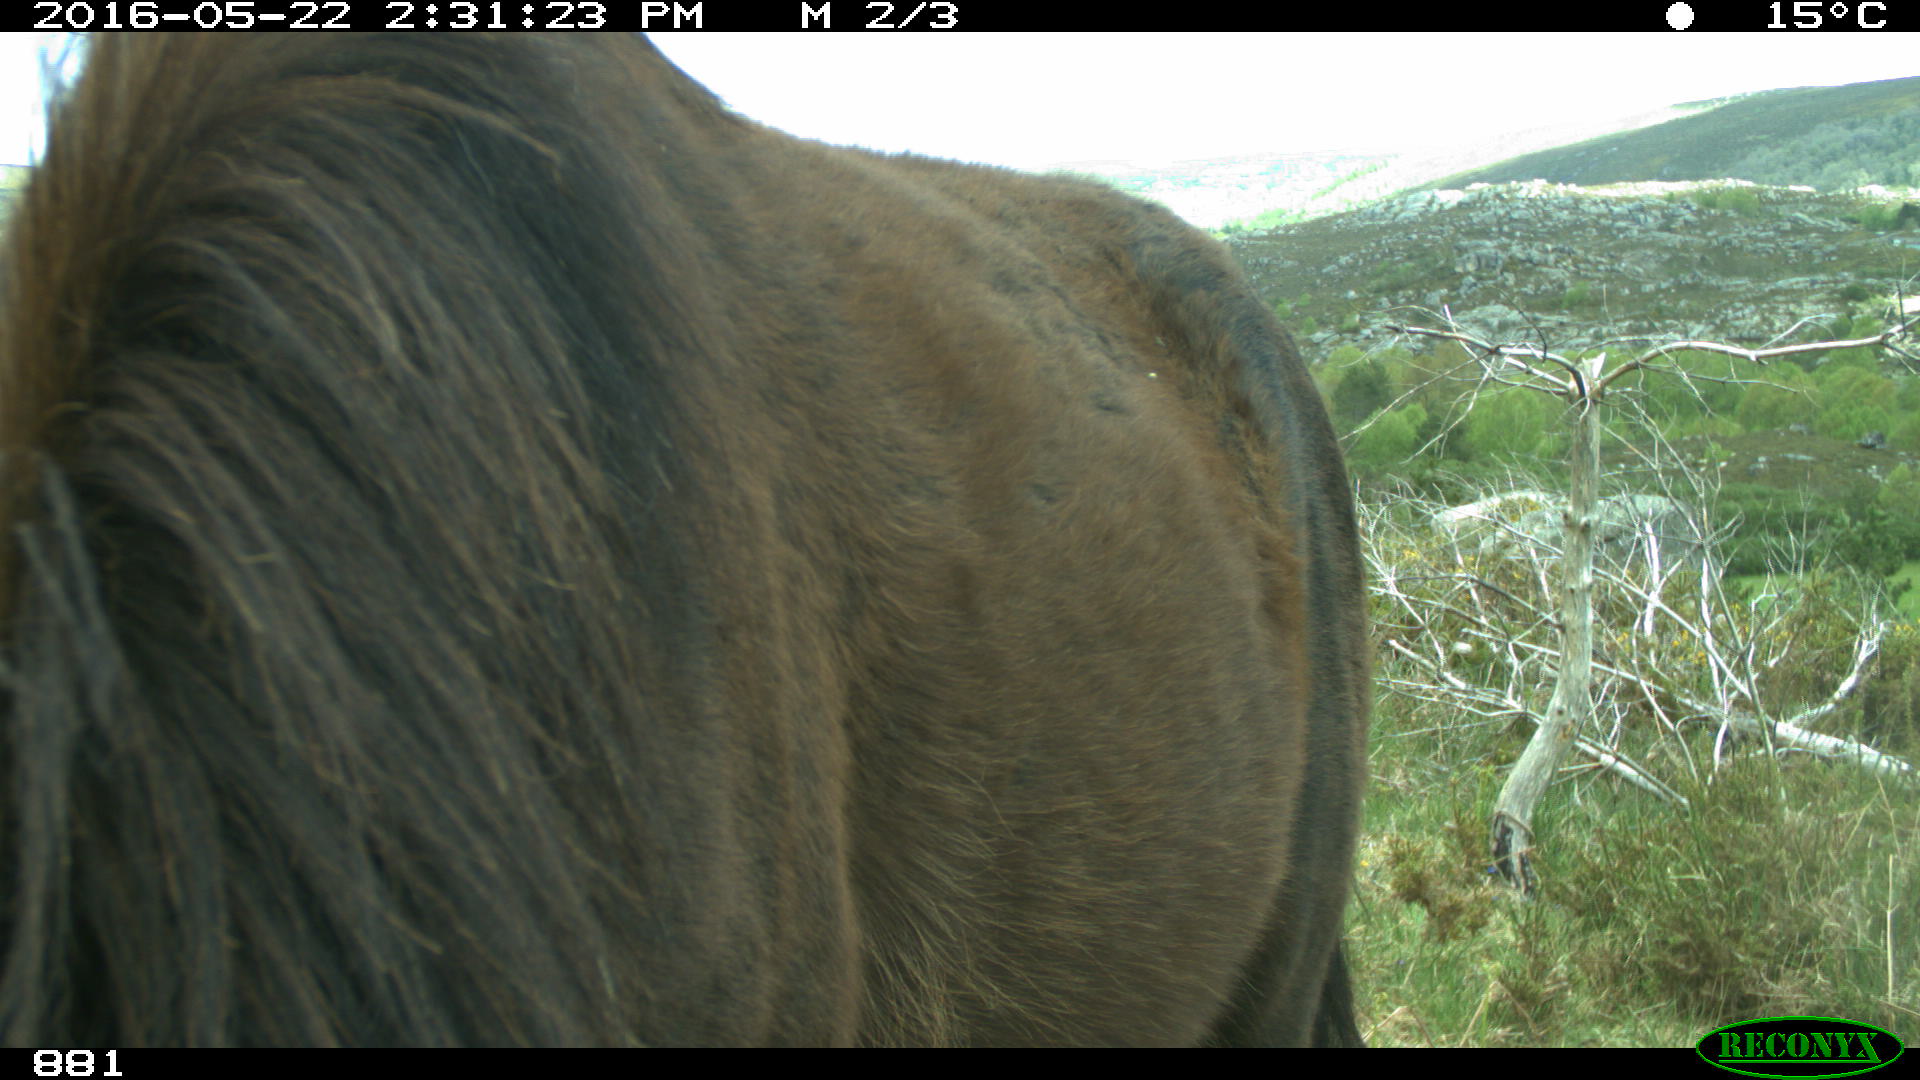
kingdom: Animalia
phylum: Chordata
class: Mammalia
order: Perissodactyla
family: Equidae
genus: Equus
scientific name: Equus caballus
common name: Horse
